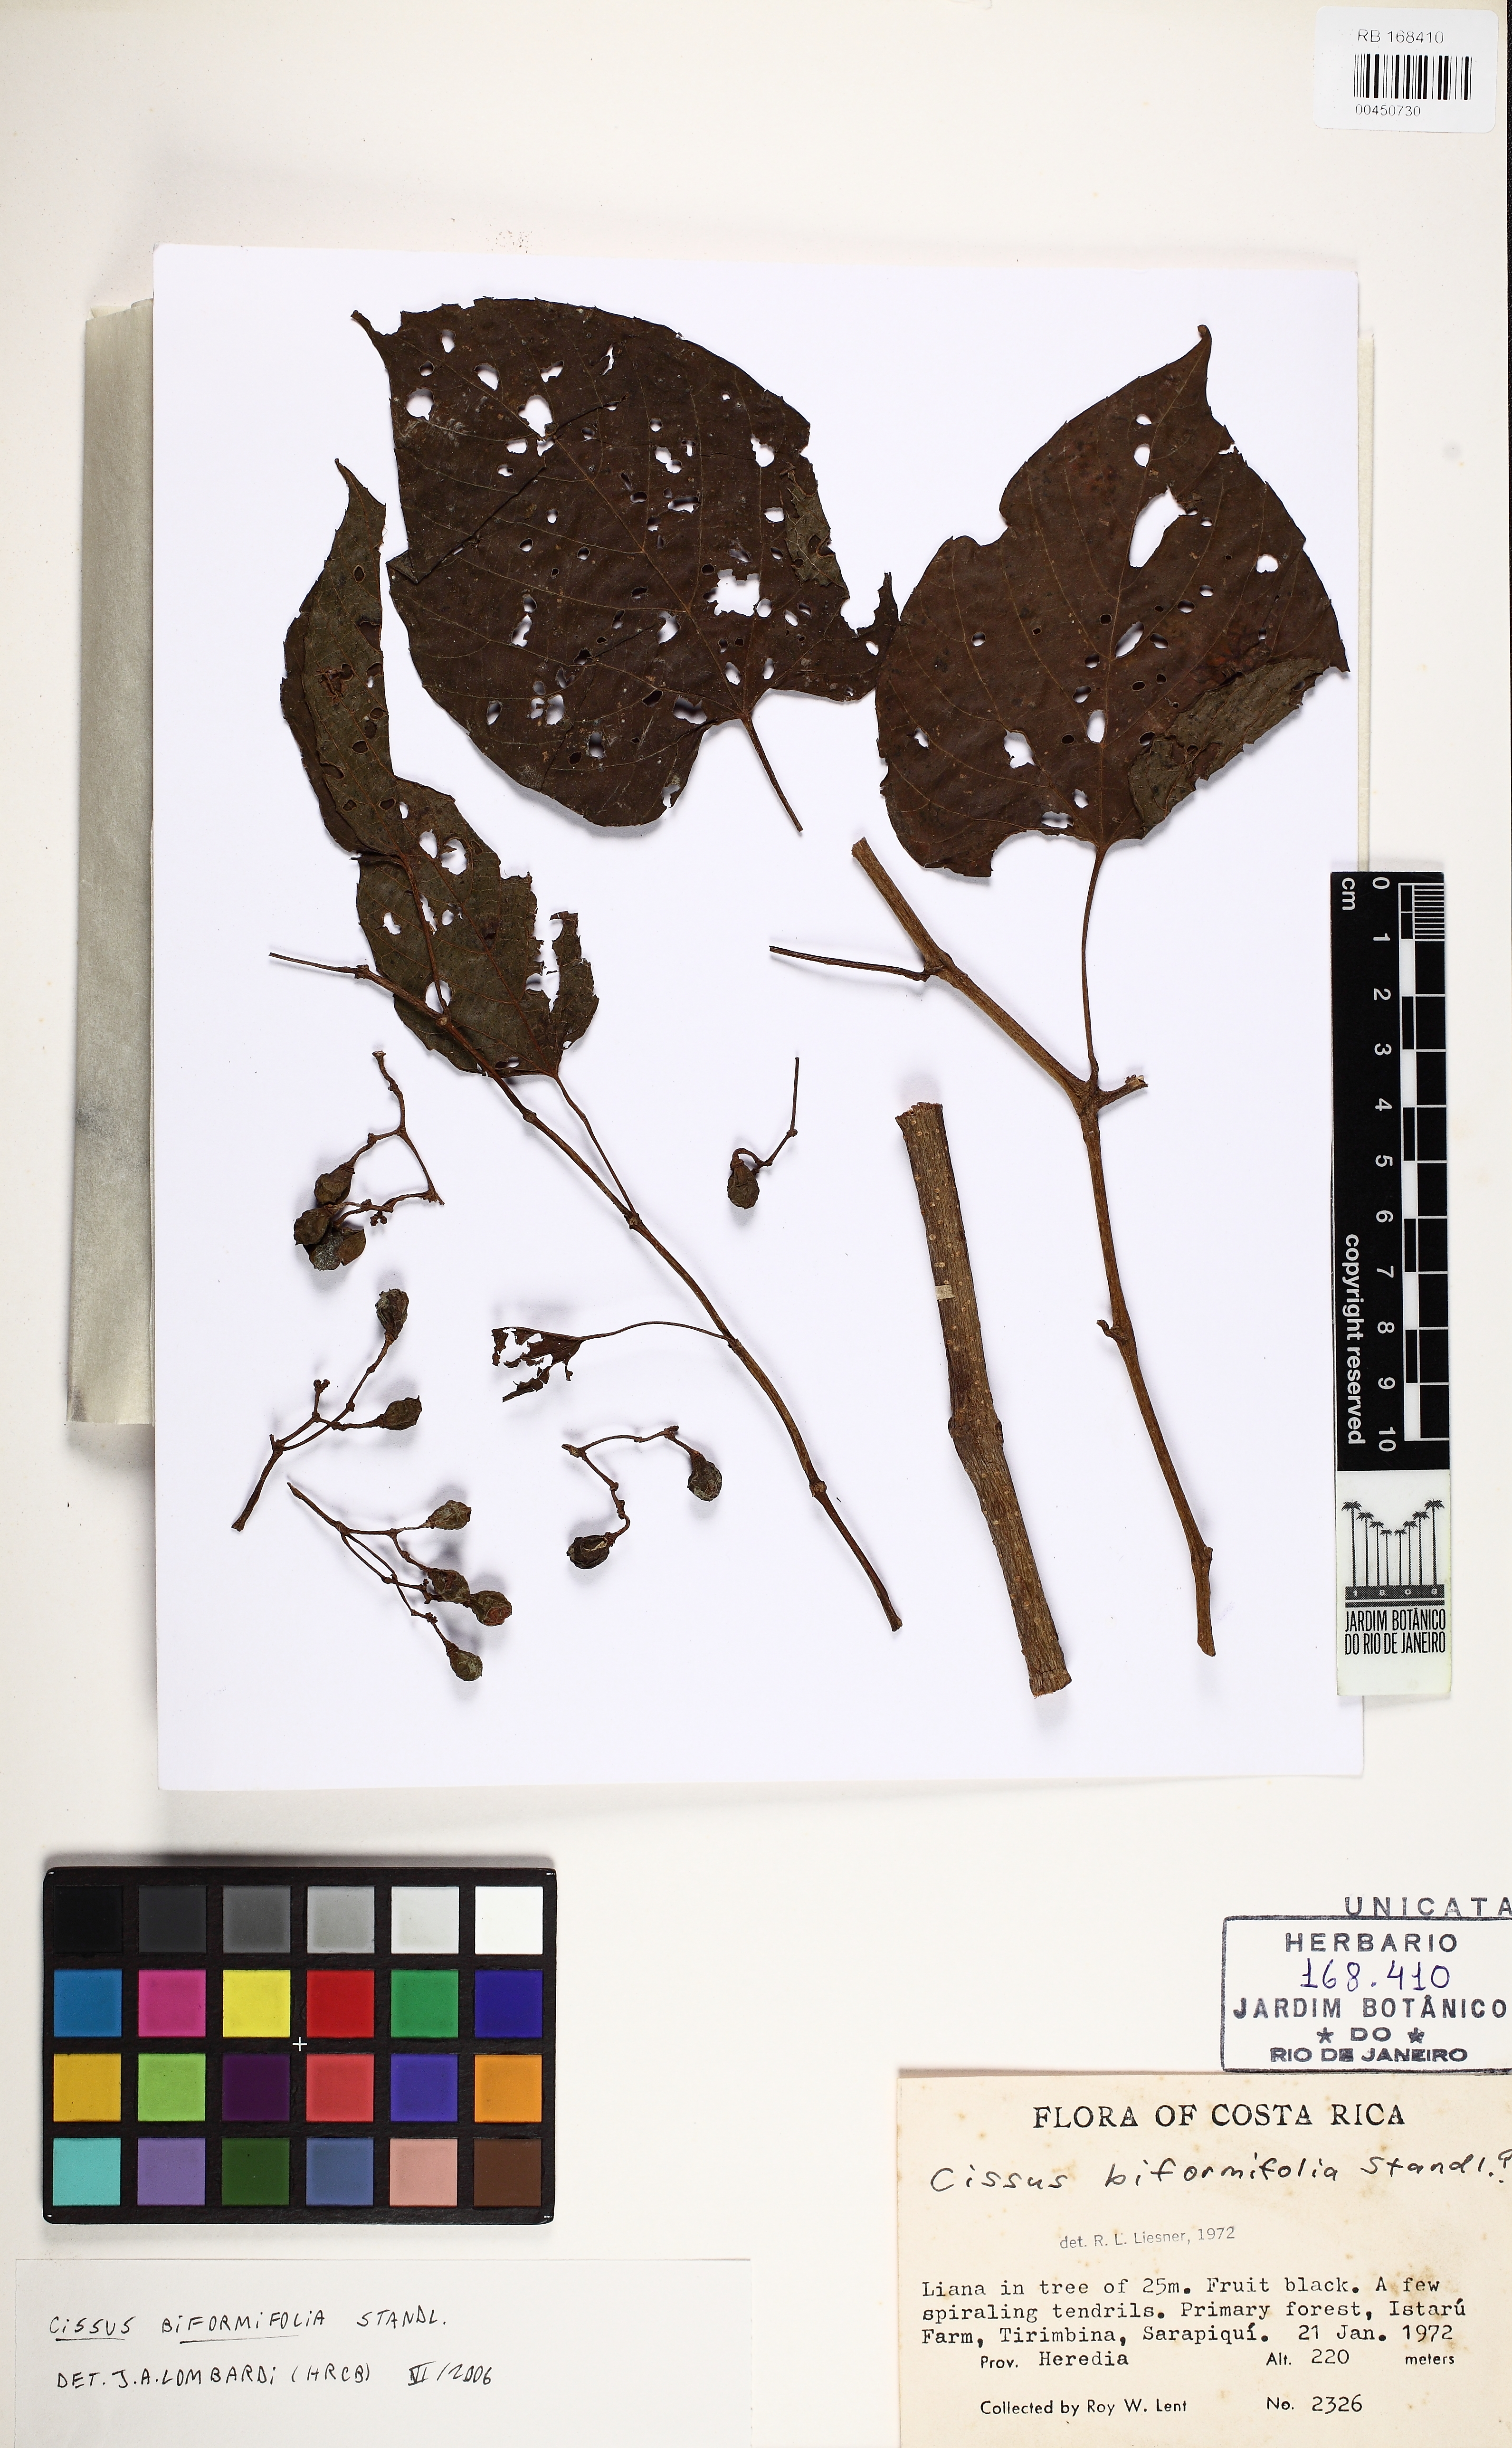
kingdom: Plantae
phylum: Tracheophyta
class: Magnoliopsida
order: Vitales
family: Vitaceae
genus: Cissus
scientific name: Cissus biformifolia
